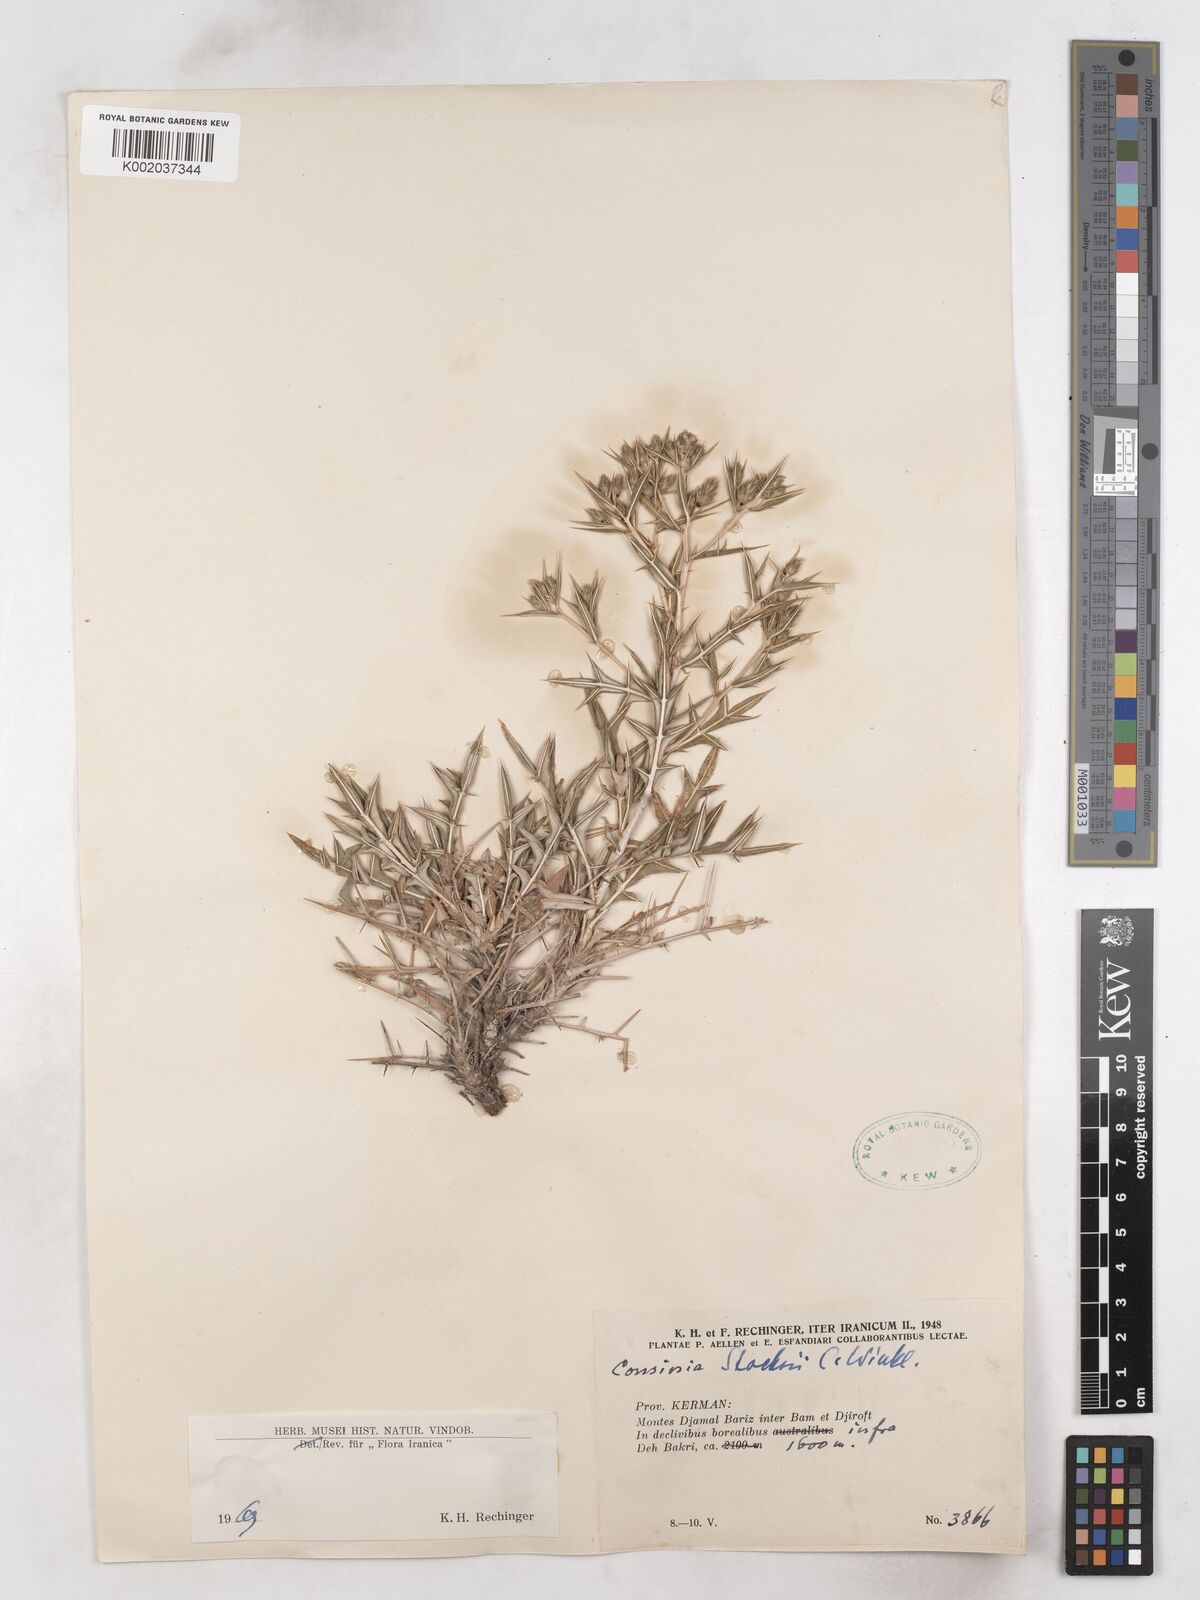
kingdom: Plantae
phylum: Tracheophyta
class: Magnoliopsida
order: Asterales
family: Asteraceae
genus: Cousinia
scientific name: Cousinia stocksii
